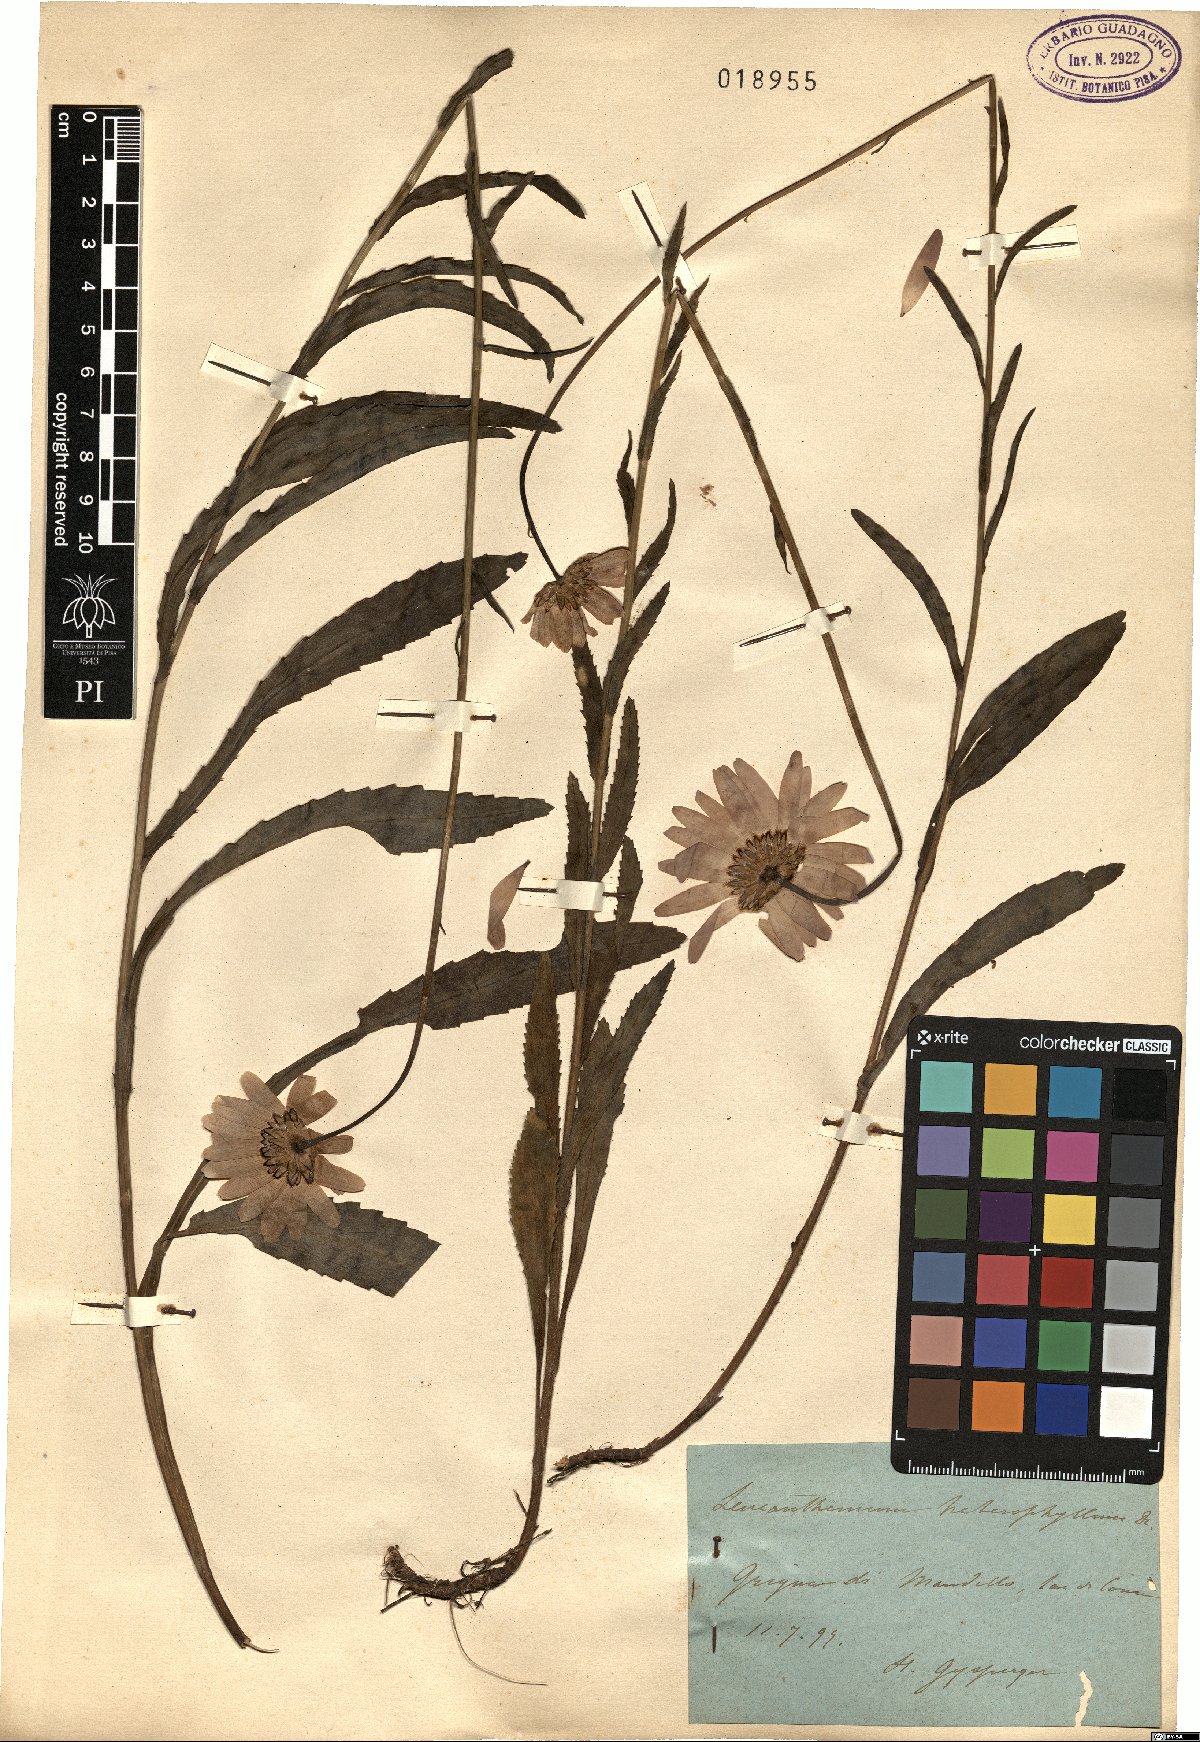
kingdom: Plantae
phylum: Tracheophyta
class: Magnoliopsida
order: Asterales
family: Asteraceae
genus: Leucanthemum
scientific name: Leucanthemum heterophyllum
